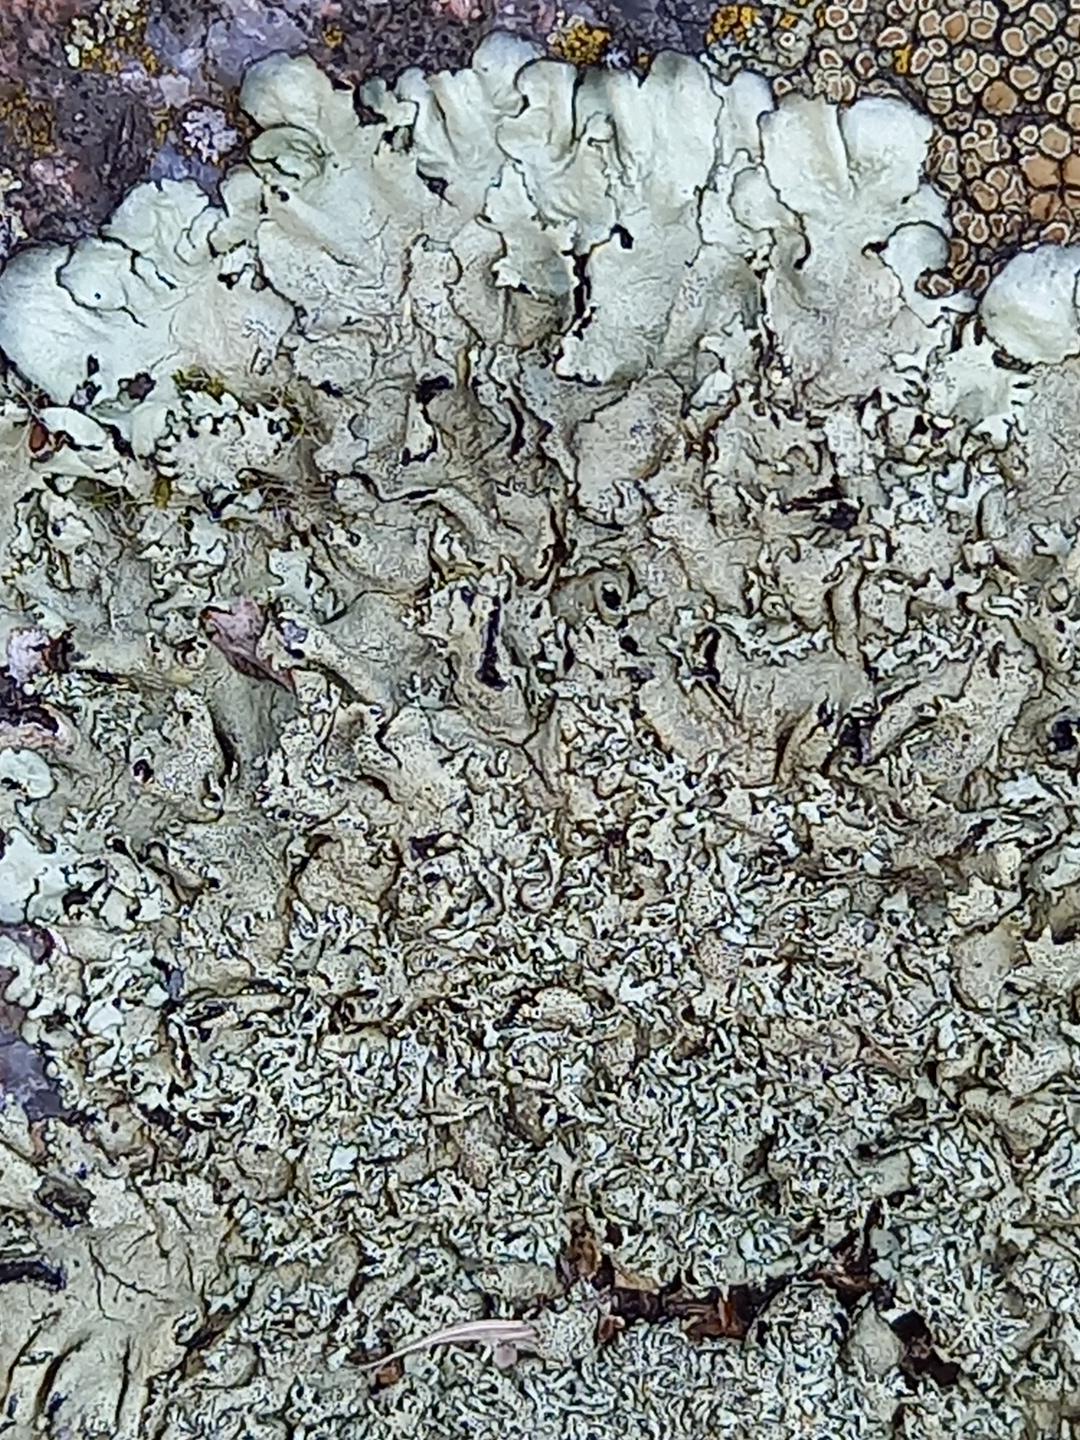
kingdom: Fungi
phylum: Ascomycota
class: Lecanoromycetes
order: Lecanorales
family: Parmeliaceae
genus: Xanthoparmelia
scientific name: Xanthoparmelia
